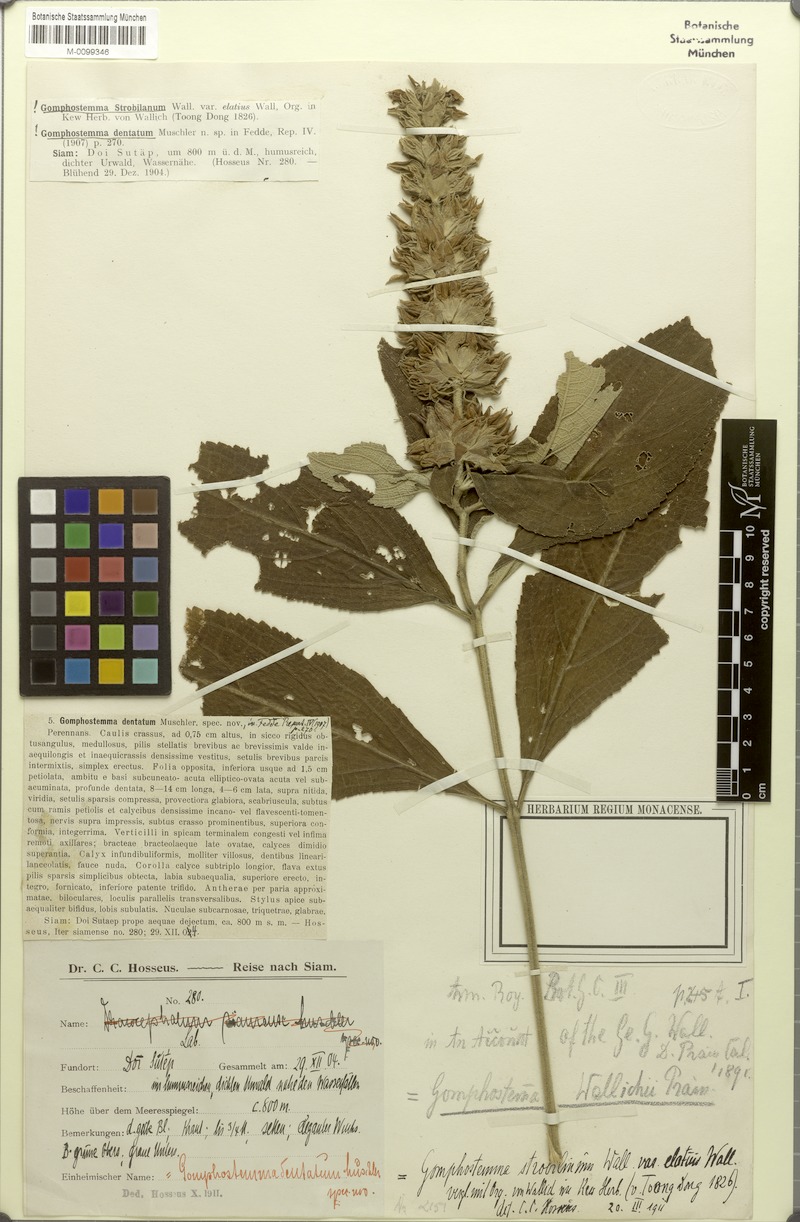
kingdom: Plantae
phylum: Tracheophyta
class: Magnoliopsida
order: Lamiales
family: Lamiaceae
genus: Gomphostemma
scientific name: Gomphostemma strobilinum
